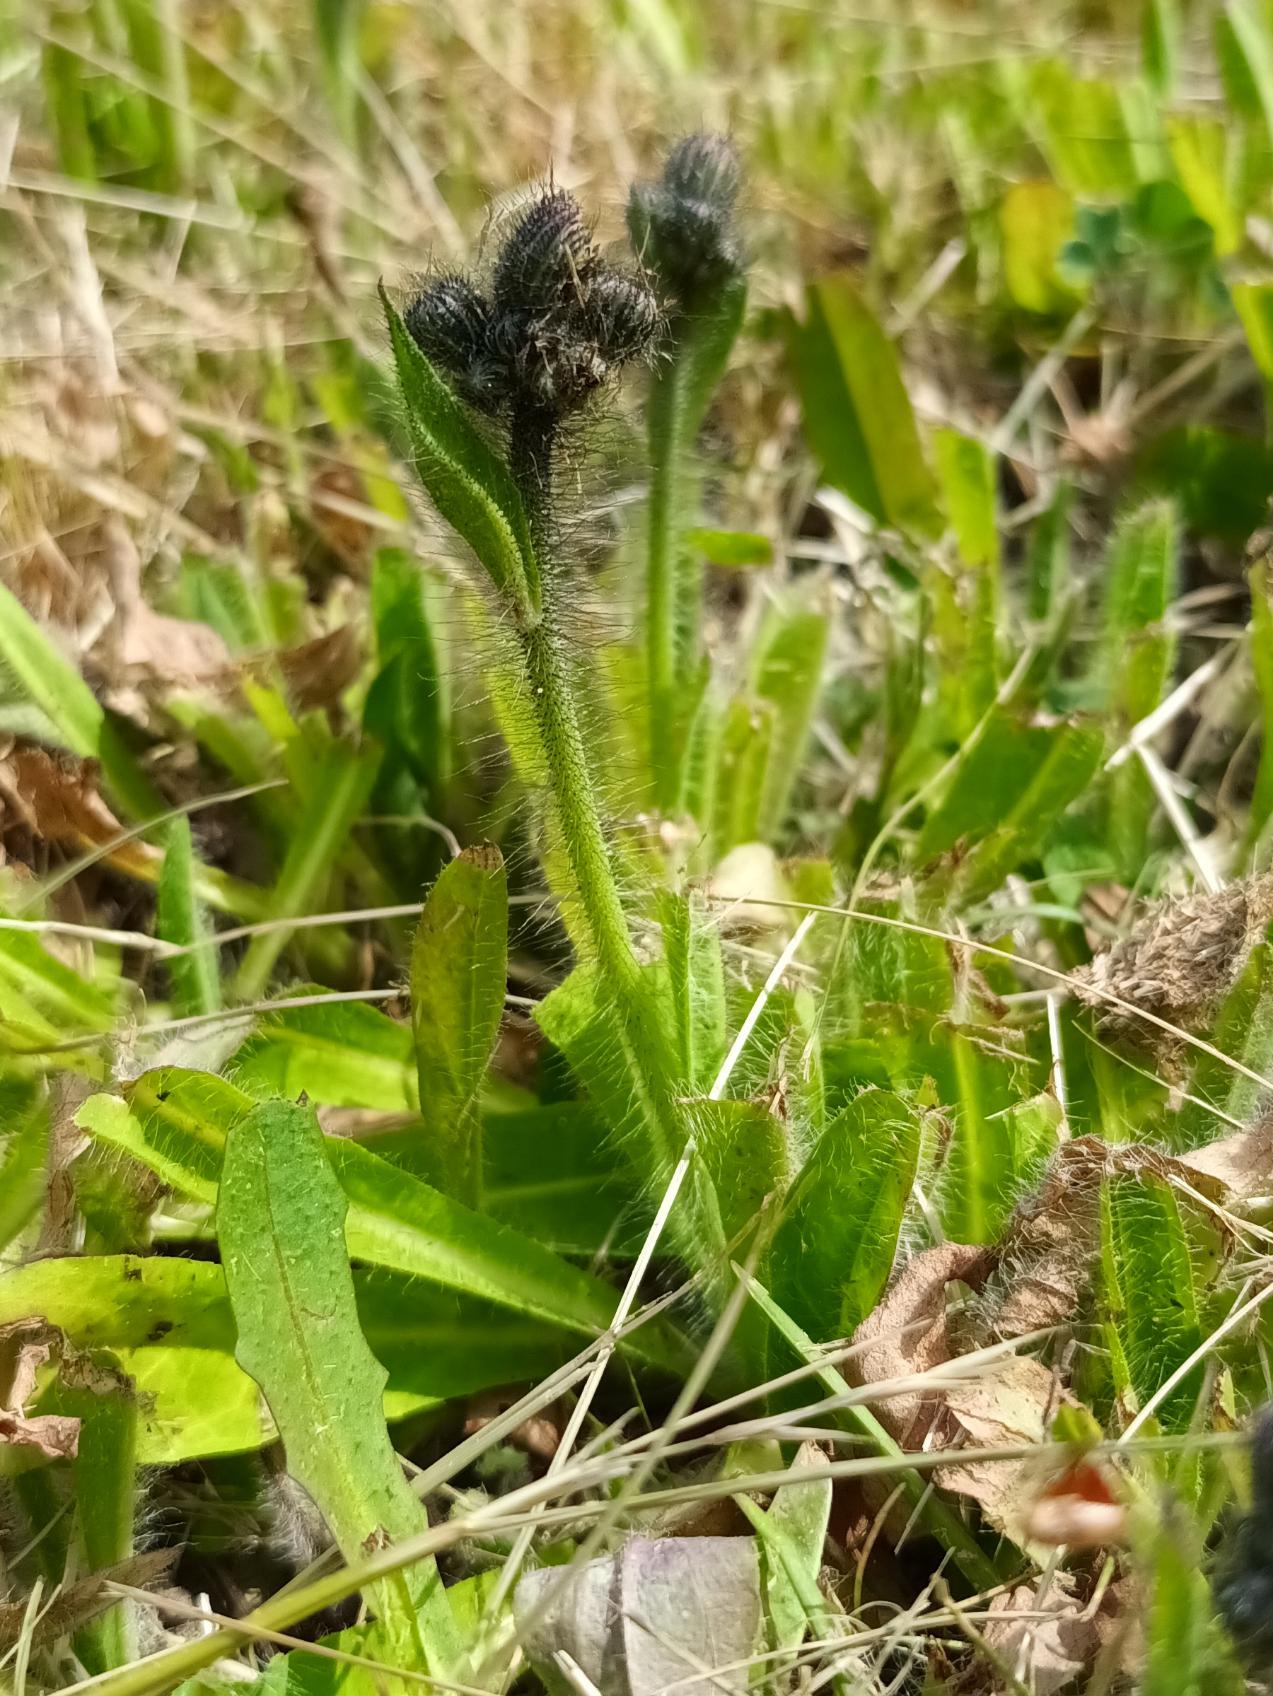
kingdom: Plantae
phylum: Tracheophyta
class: Magnoliopsida
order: Asterales
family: Asteraceae
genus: Pilosella
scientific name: Pilosella aurantiaca
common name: Pomerans-høgeurt
